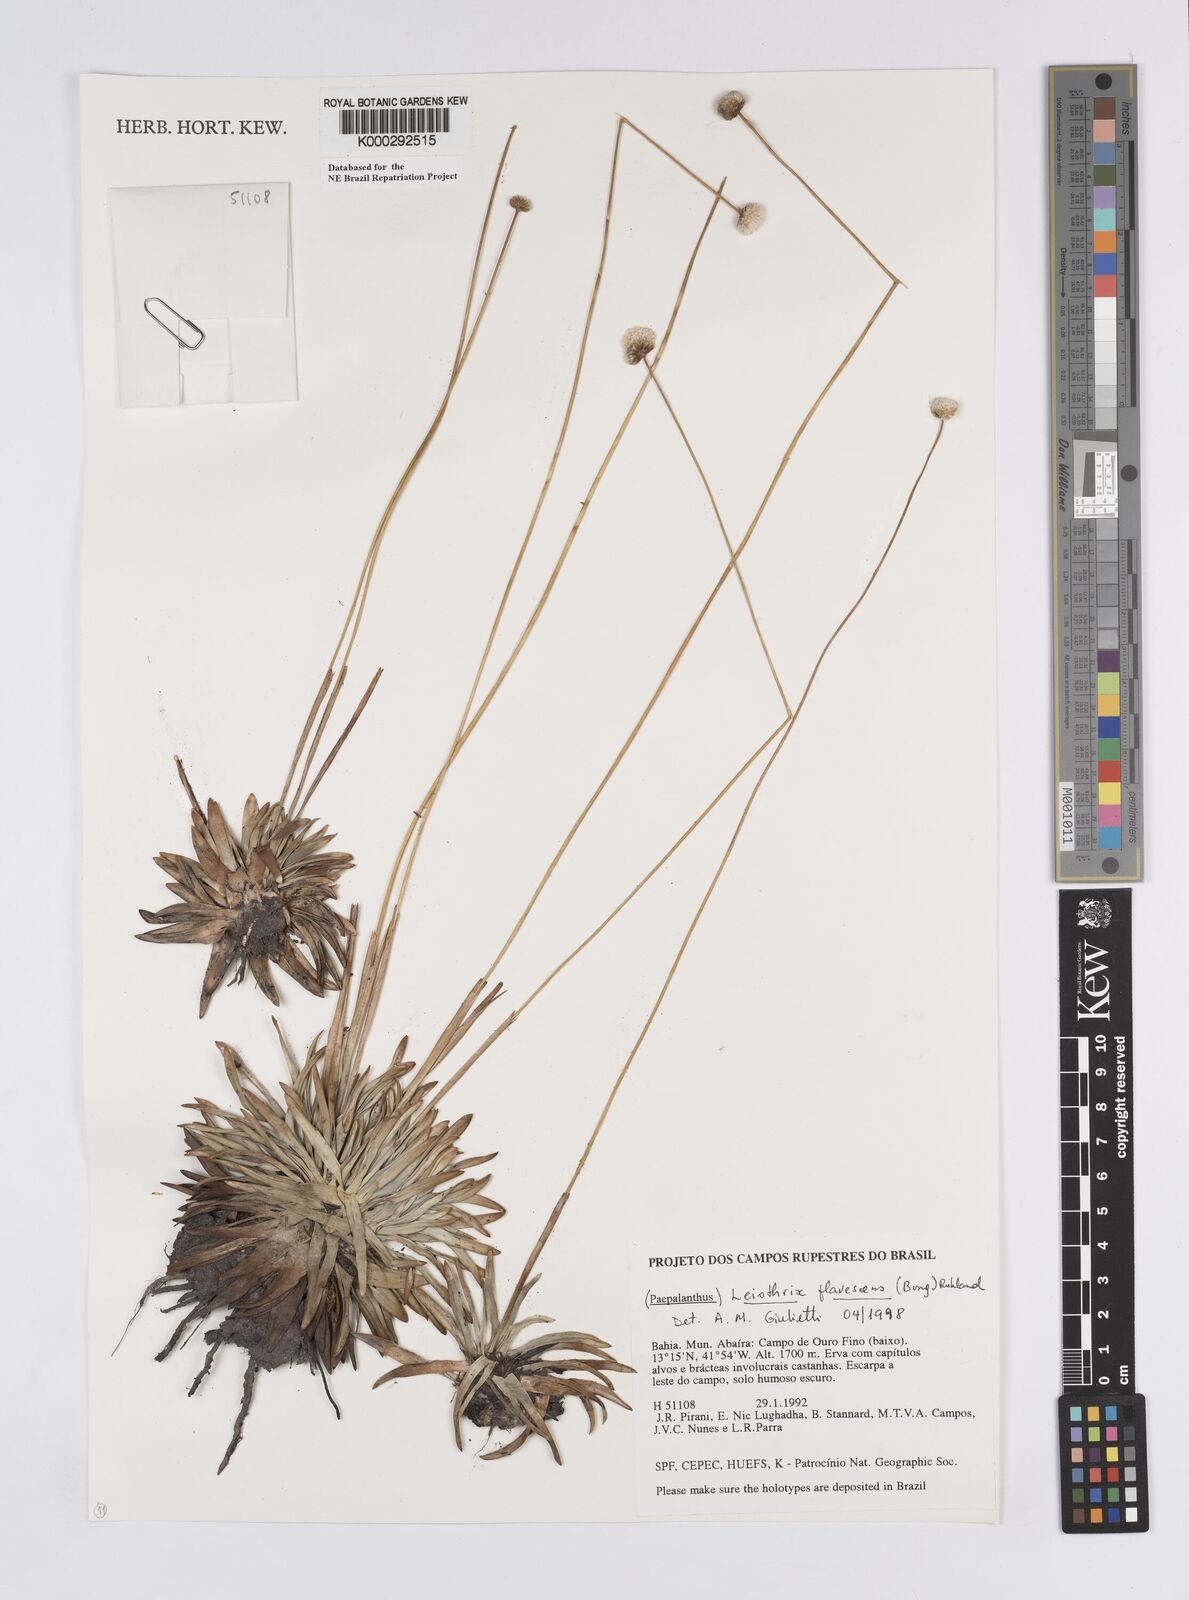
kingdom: Plantae
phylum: Tracheophyta
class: Liliopsida
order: Poales
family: Eriocaulaceae
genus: Leiothrix
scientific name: Leiothrix flavescens
